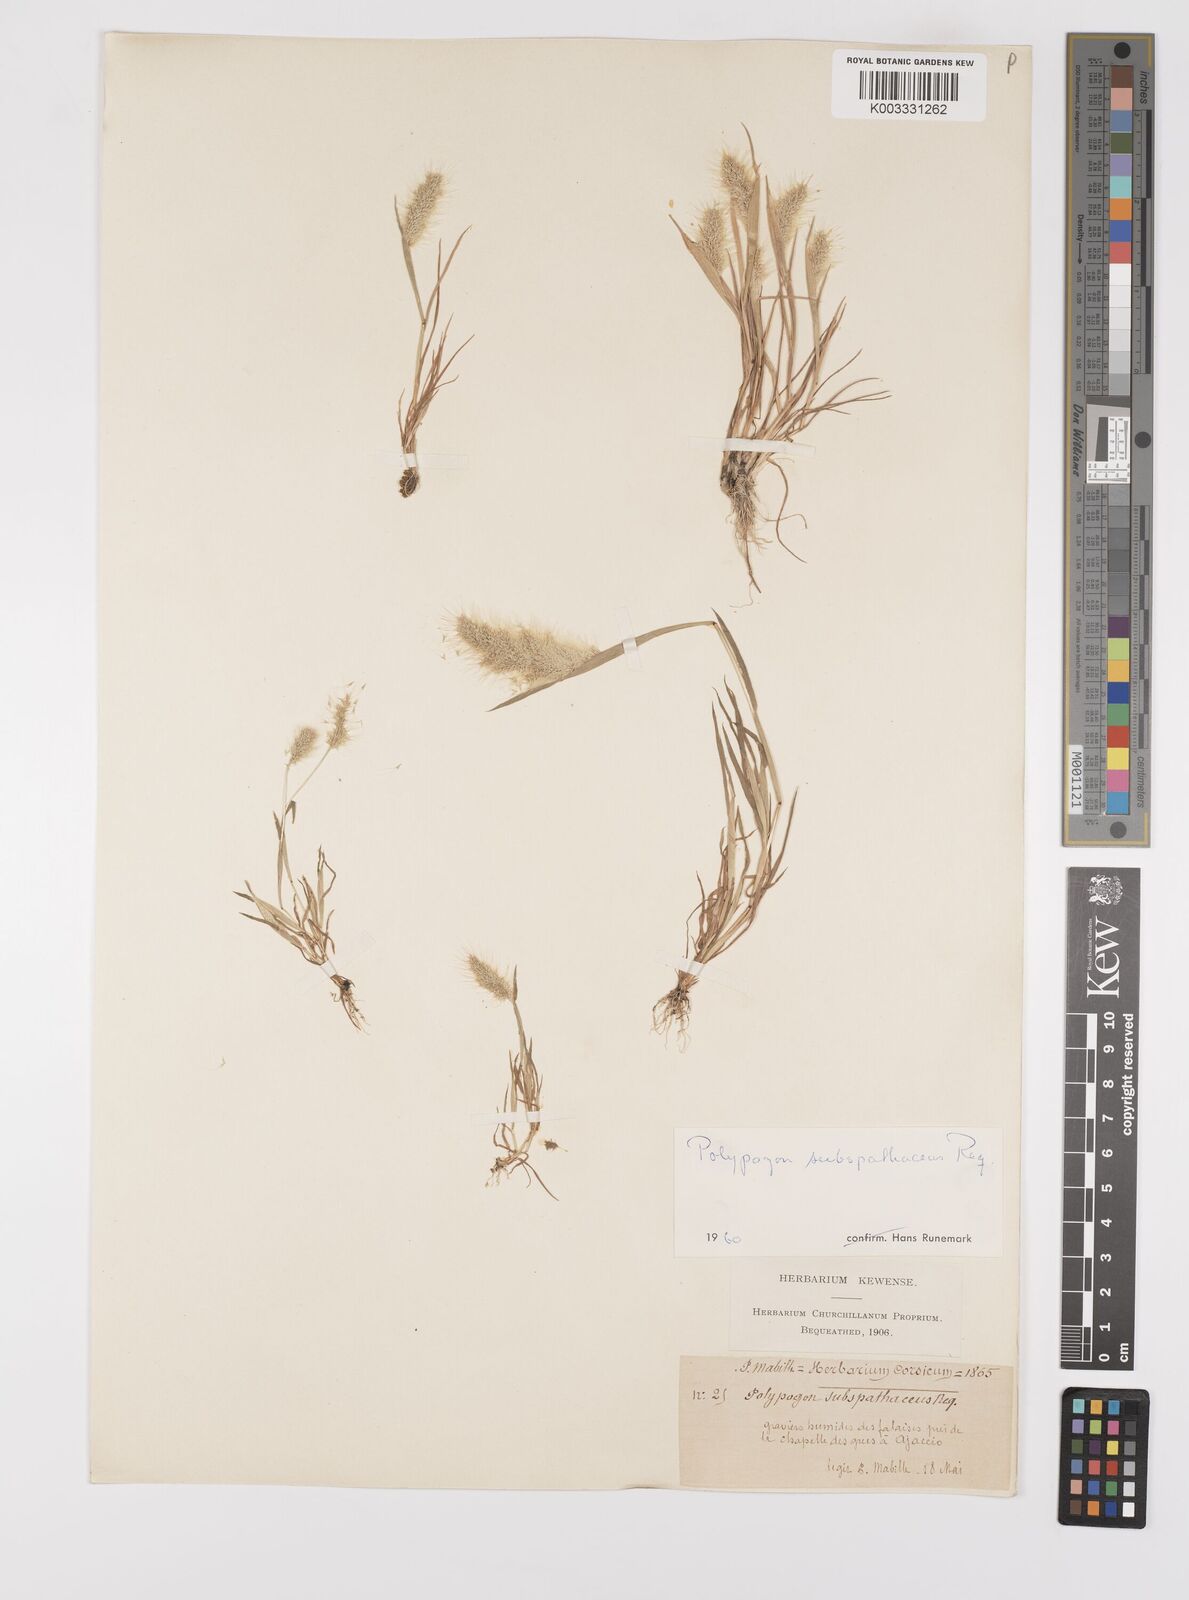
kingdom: Plantae
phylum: Tracheophyta
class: Liliopsida
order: Poales
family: Poaceae
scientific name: Poaceae
